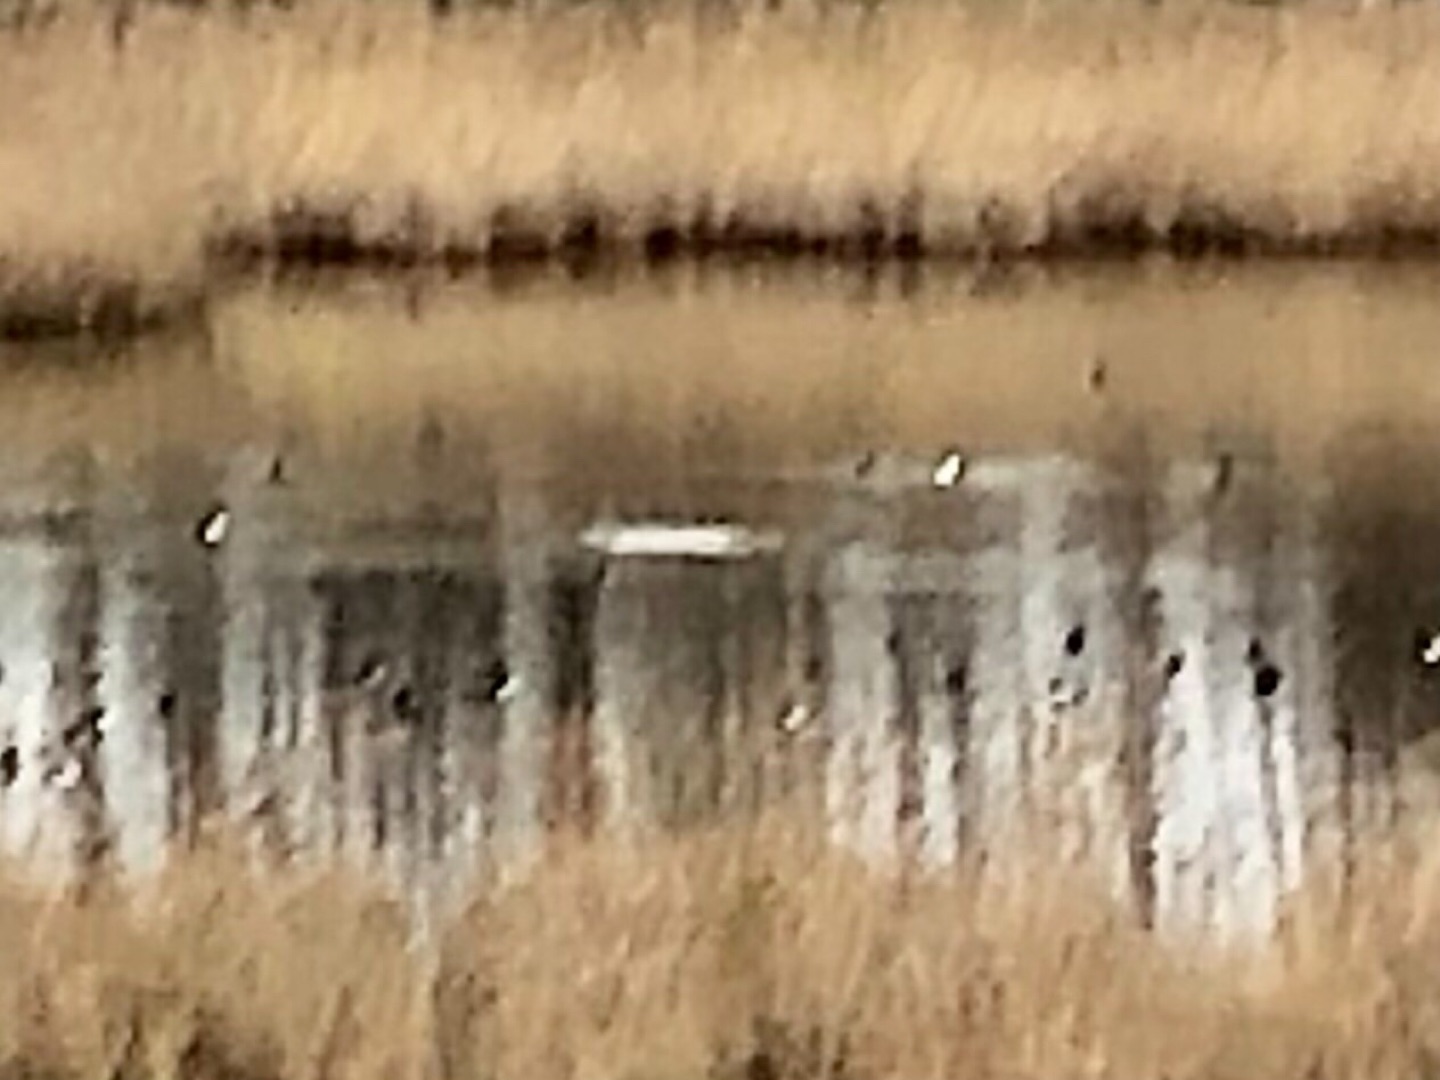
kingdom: Animalia
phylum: Chordata
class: Aves
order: Anseriformes
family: Anatidae
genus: Aythya
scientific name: Aythya fuligula
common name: Troldand
